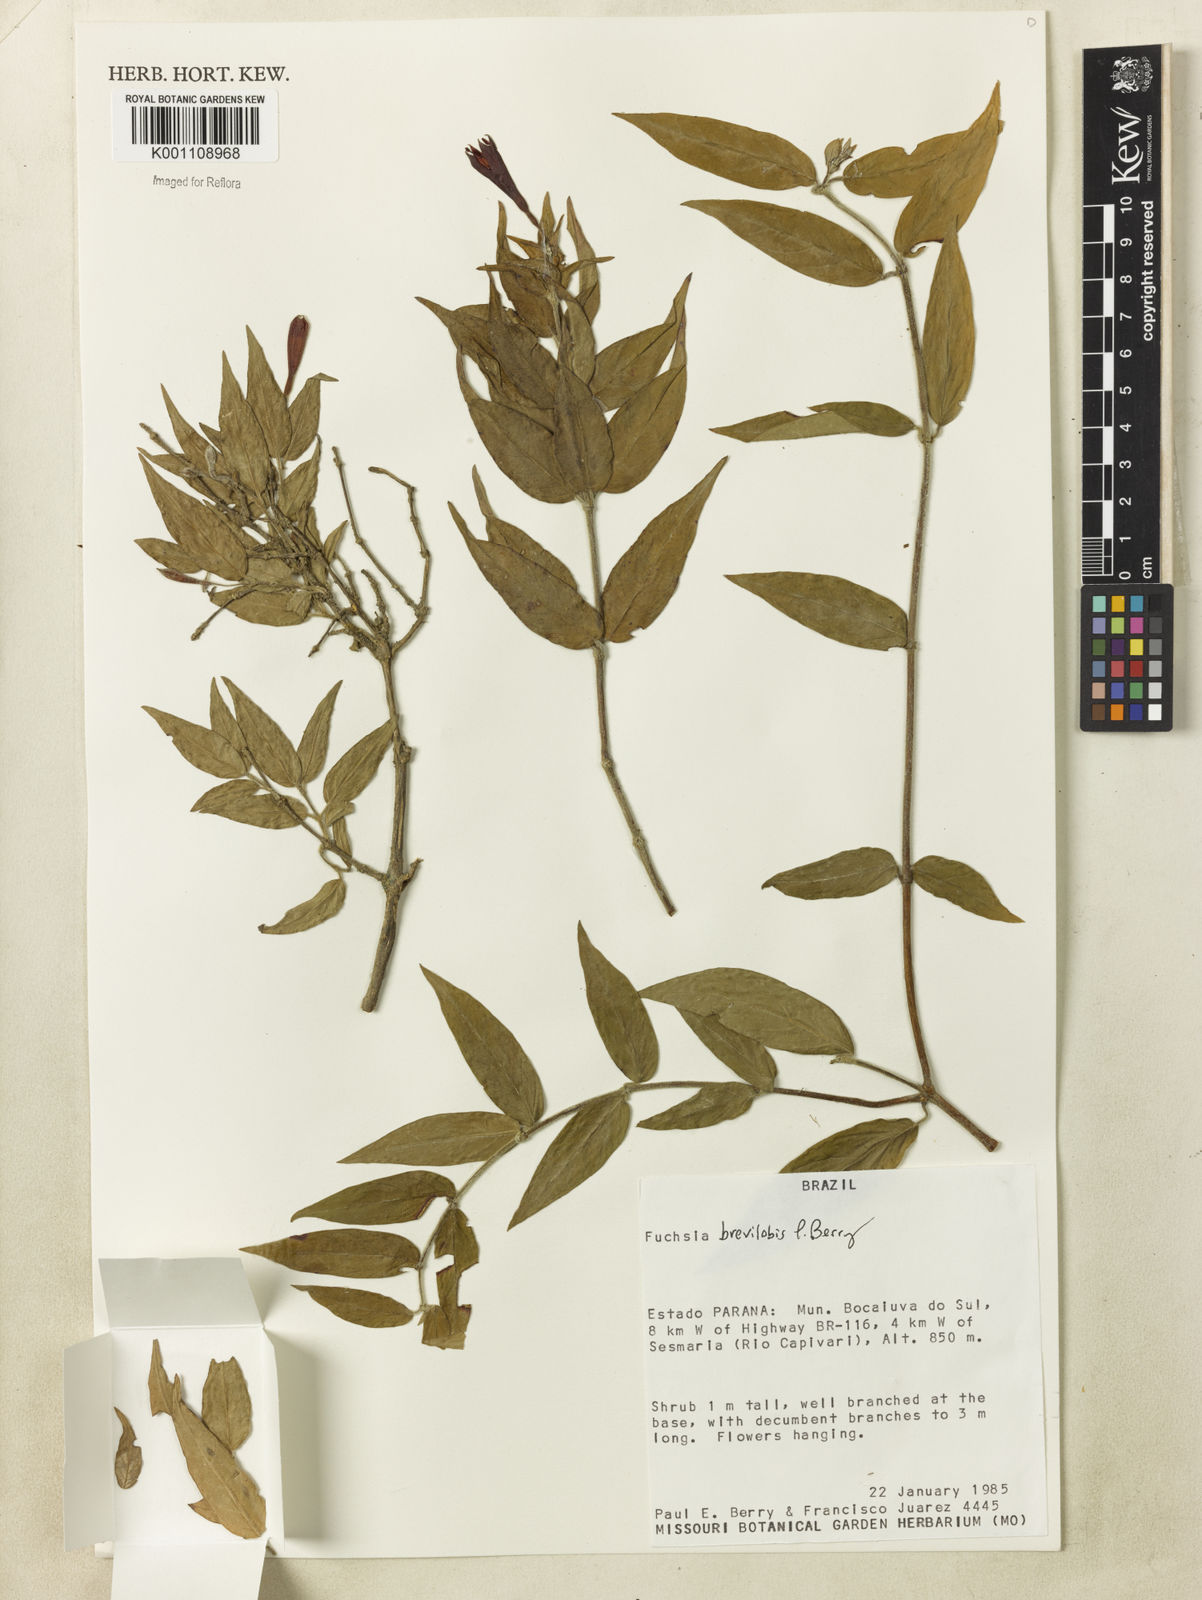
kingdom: Plantae
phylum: Tracheophyta
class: Magnoliopsida
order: Myrtales
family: Onagraceae
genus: Fuchsia
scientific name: Fuchsia brevilobis
